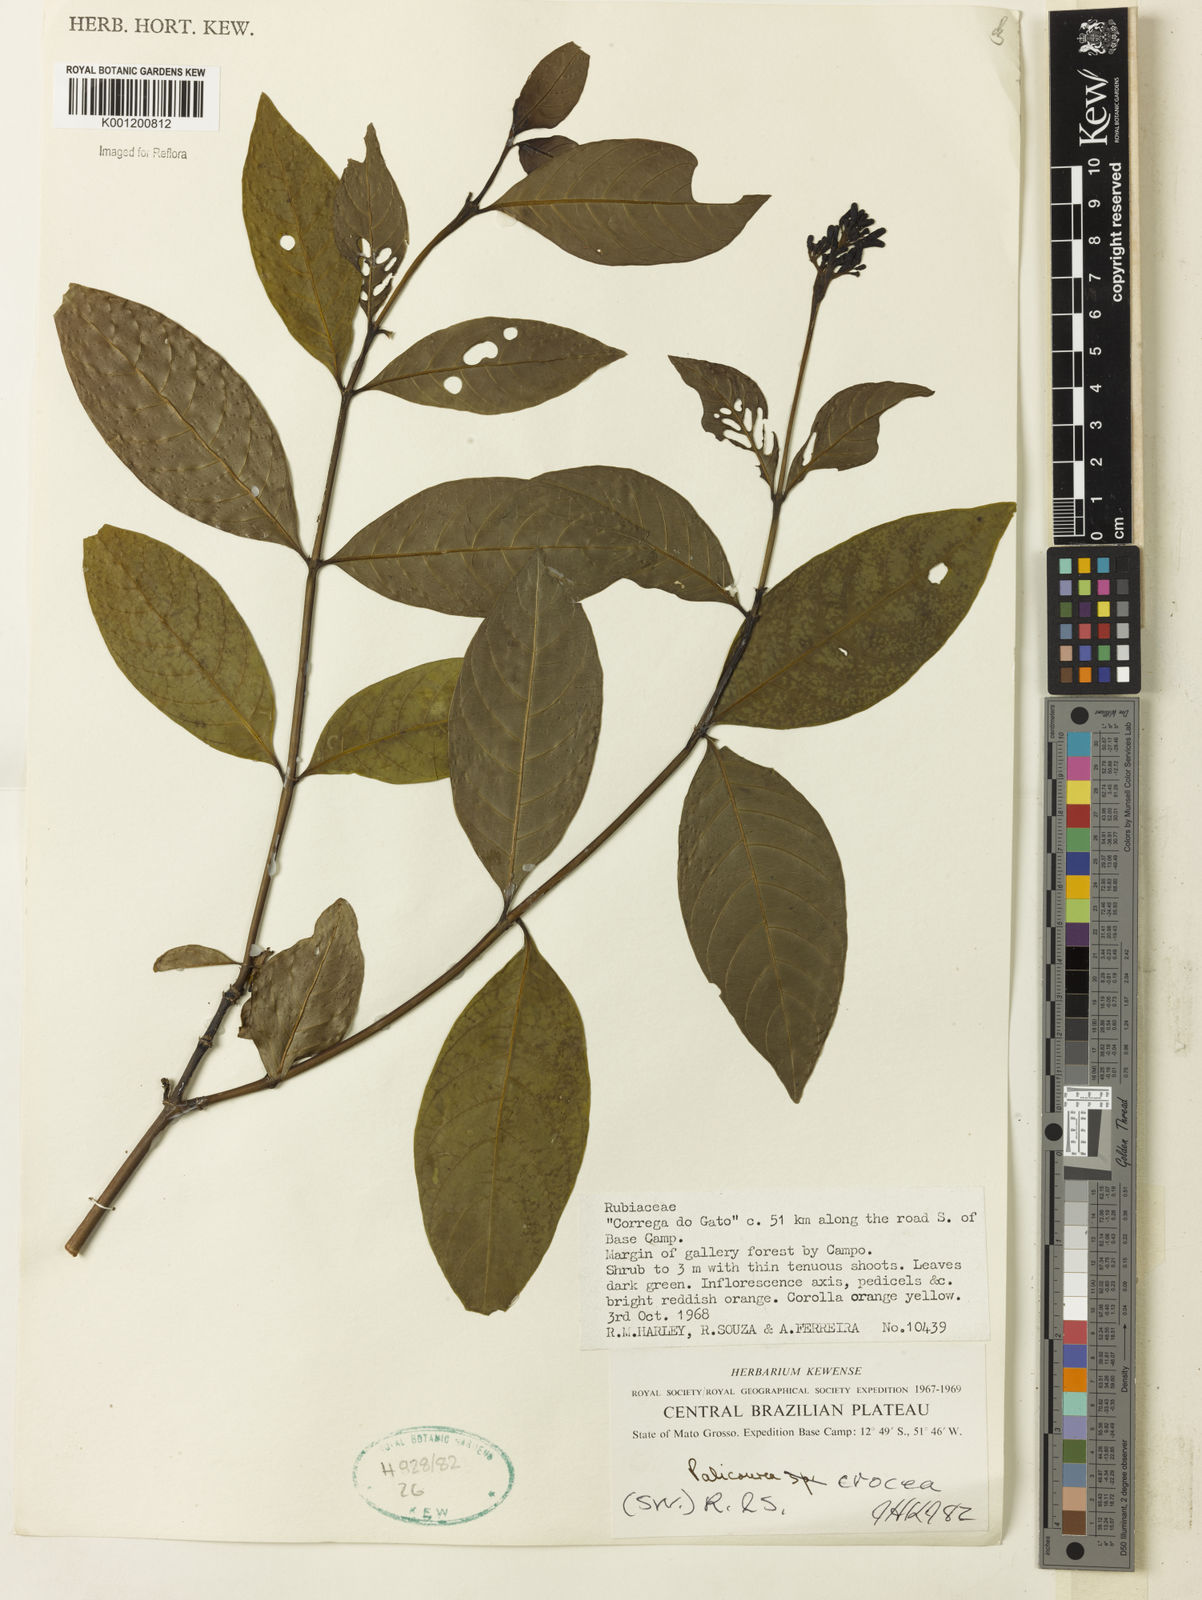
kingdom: Plantae
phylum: Tracheophyta
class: Magnoliopsida
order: Gentianales
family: Rubiaceae
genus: Palicourea
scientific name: Palicourea crocea
